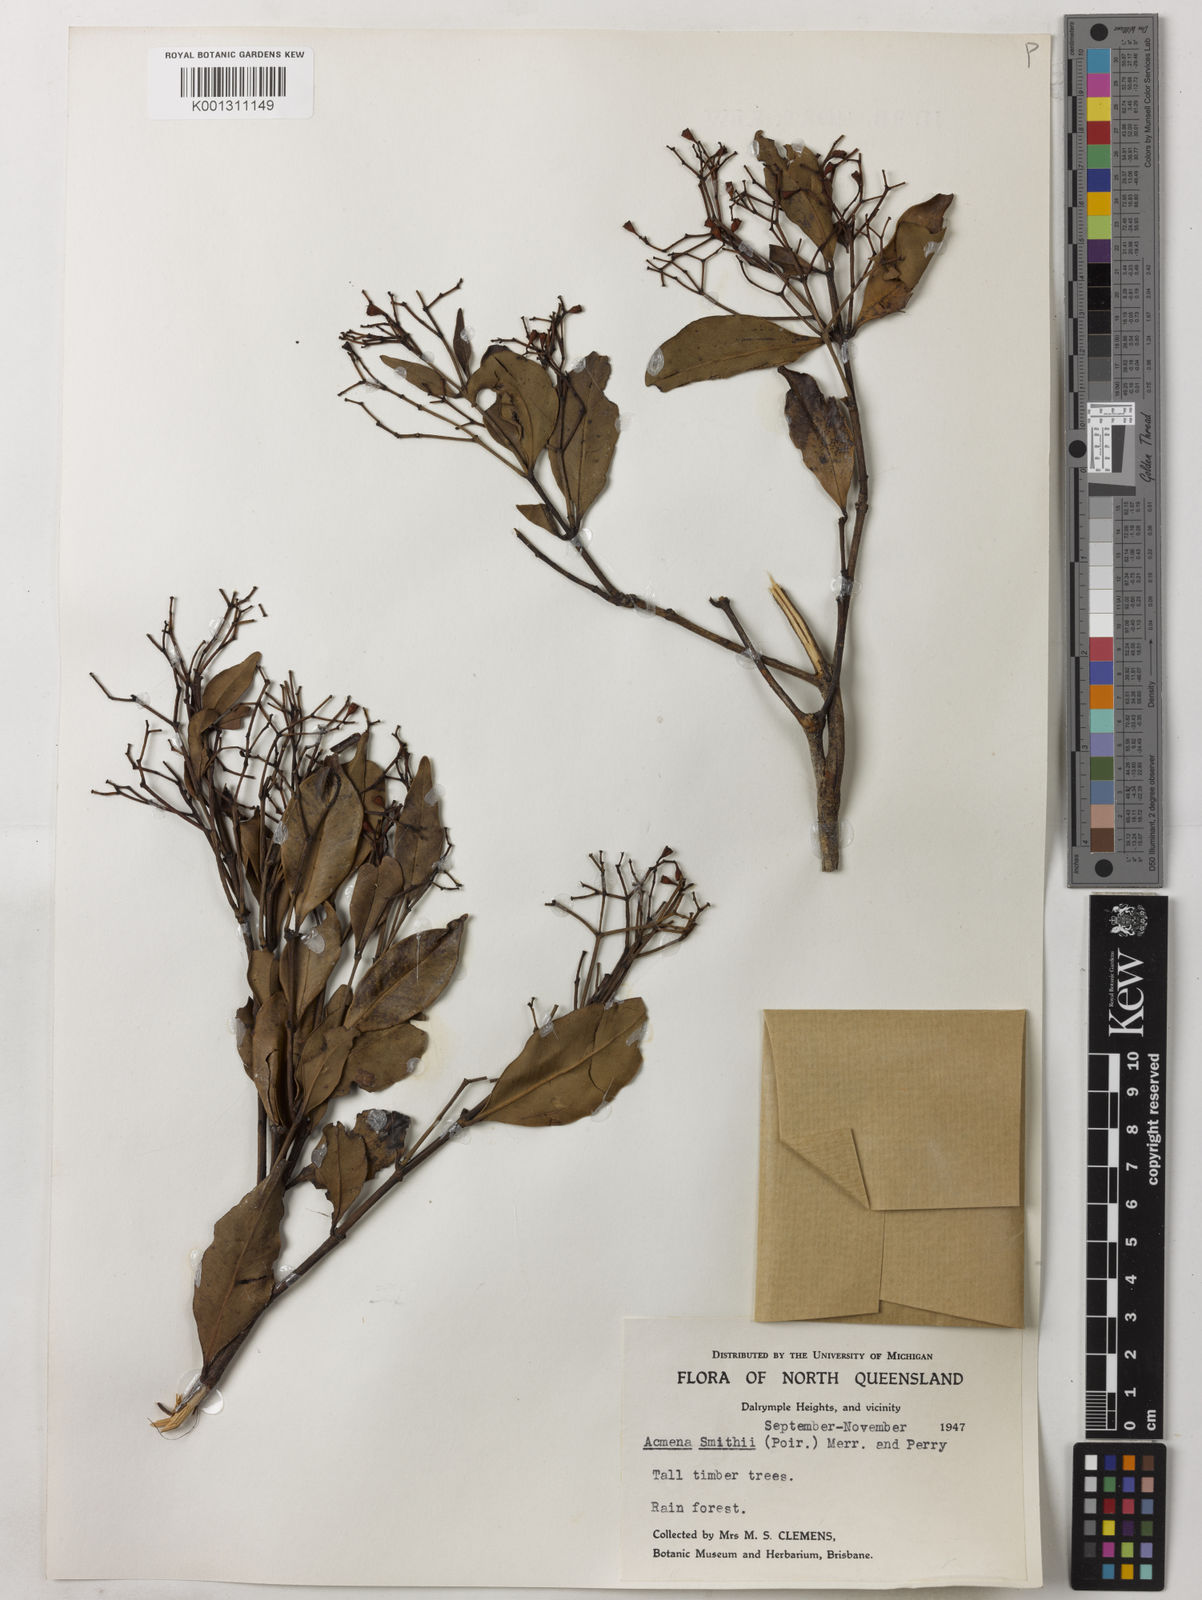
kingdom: Plantae
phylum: Tracheophyta
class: Magnoliopsida
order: Myrtales
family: Myrtaceae
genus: Syzygium
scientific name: Syzygium smithii
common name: Lilly-pilly
